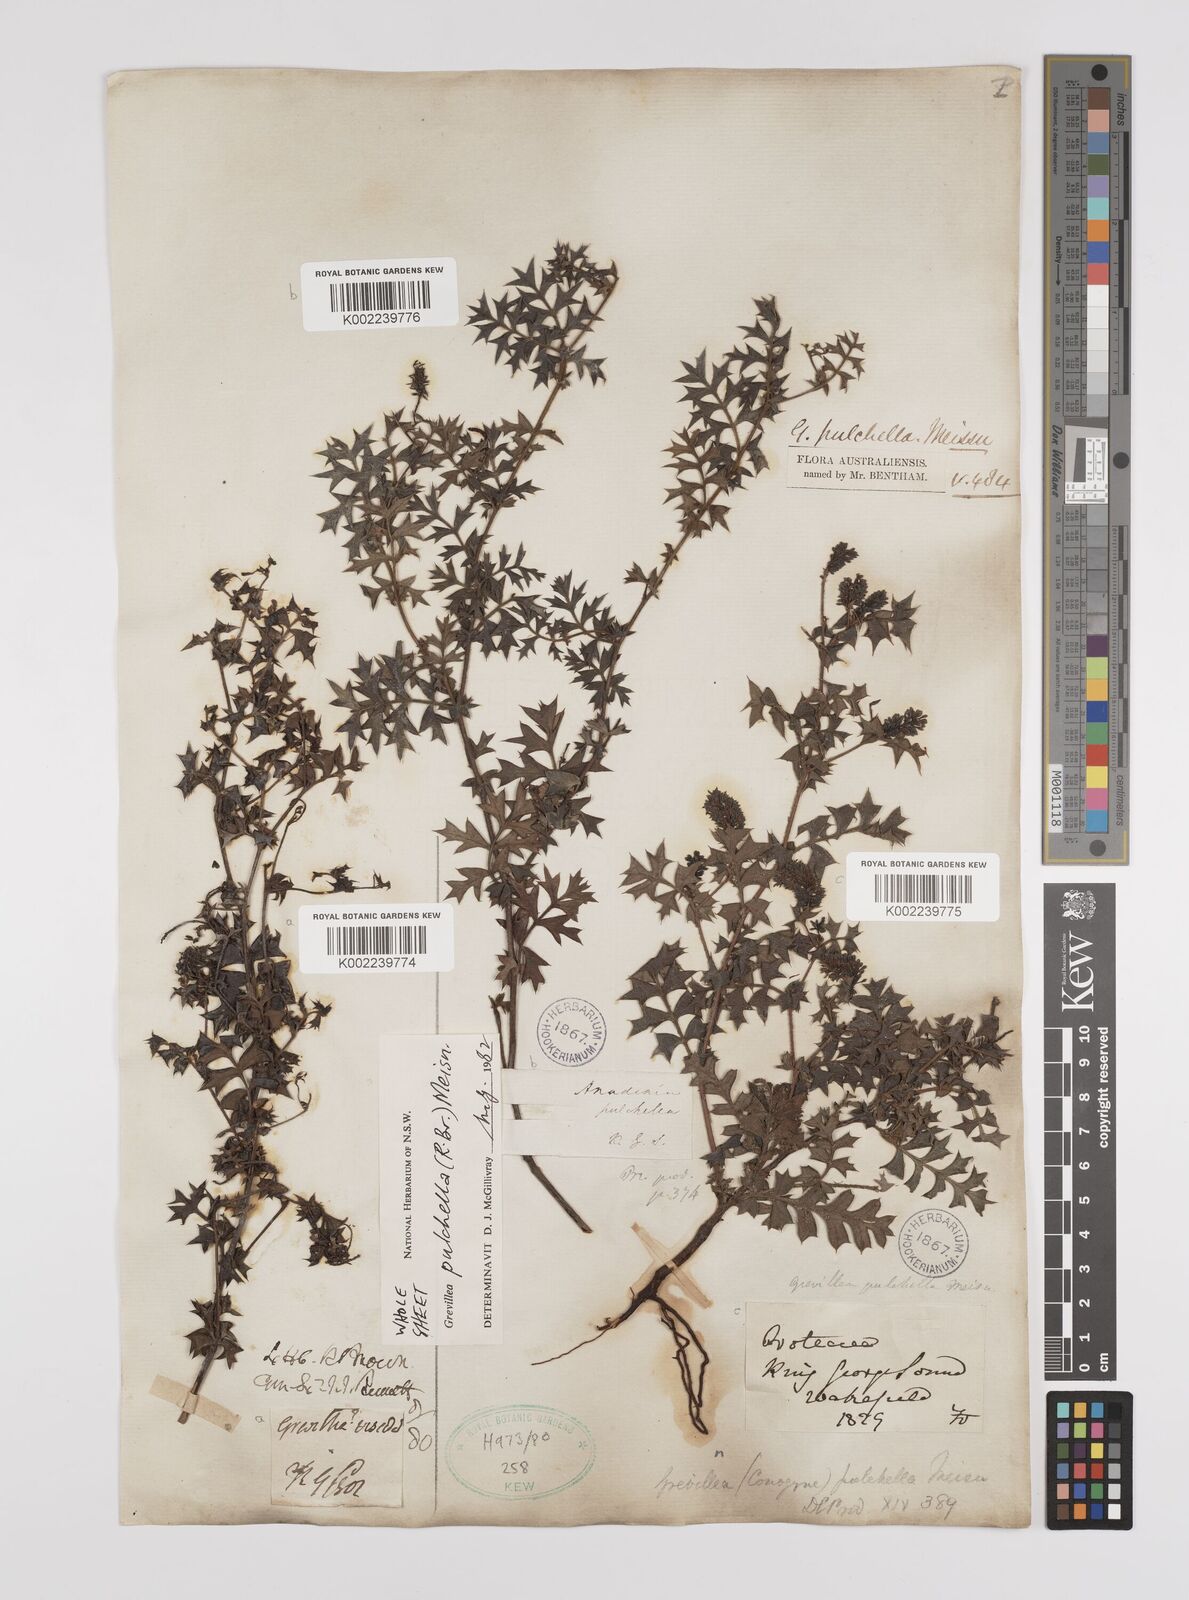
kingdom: Plantae
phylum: Tracheophyta
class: Magnoliopsida
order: Proteales
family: Proteaceae
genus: Grevillea
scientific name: Grevillea pulchella
